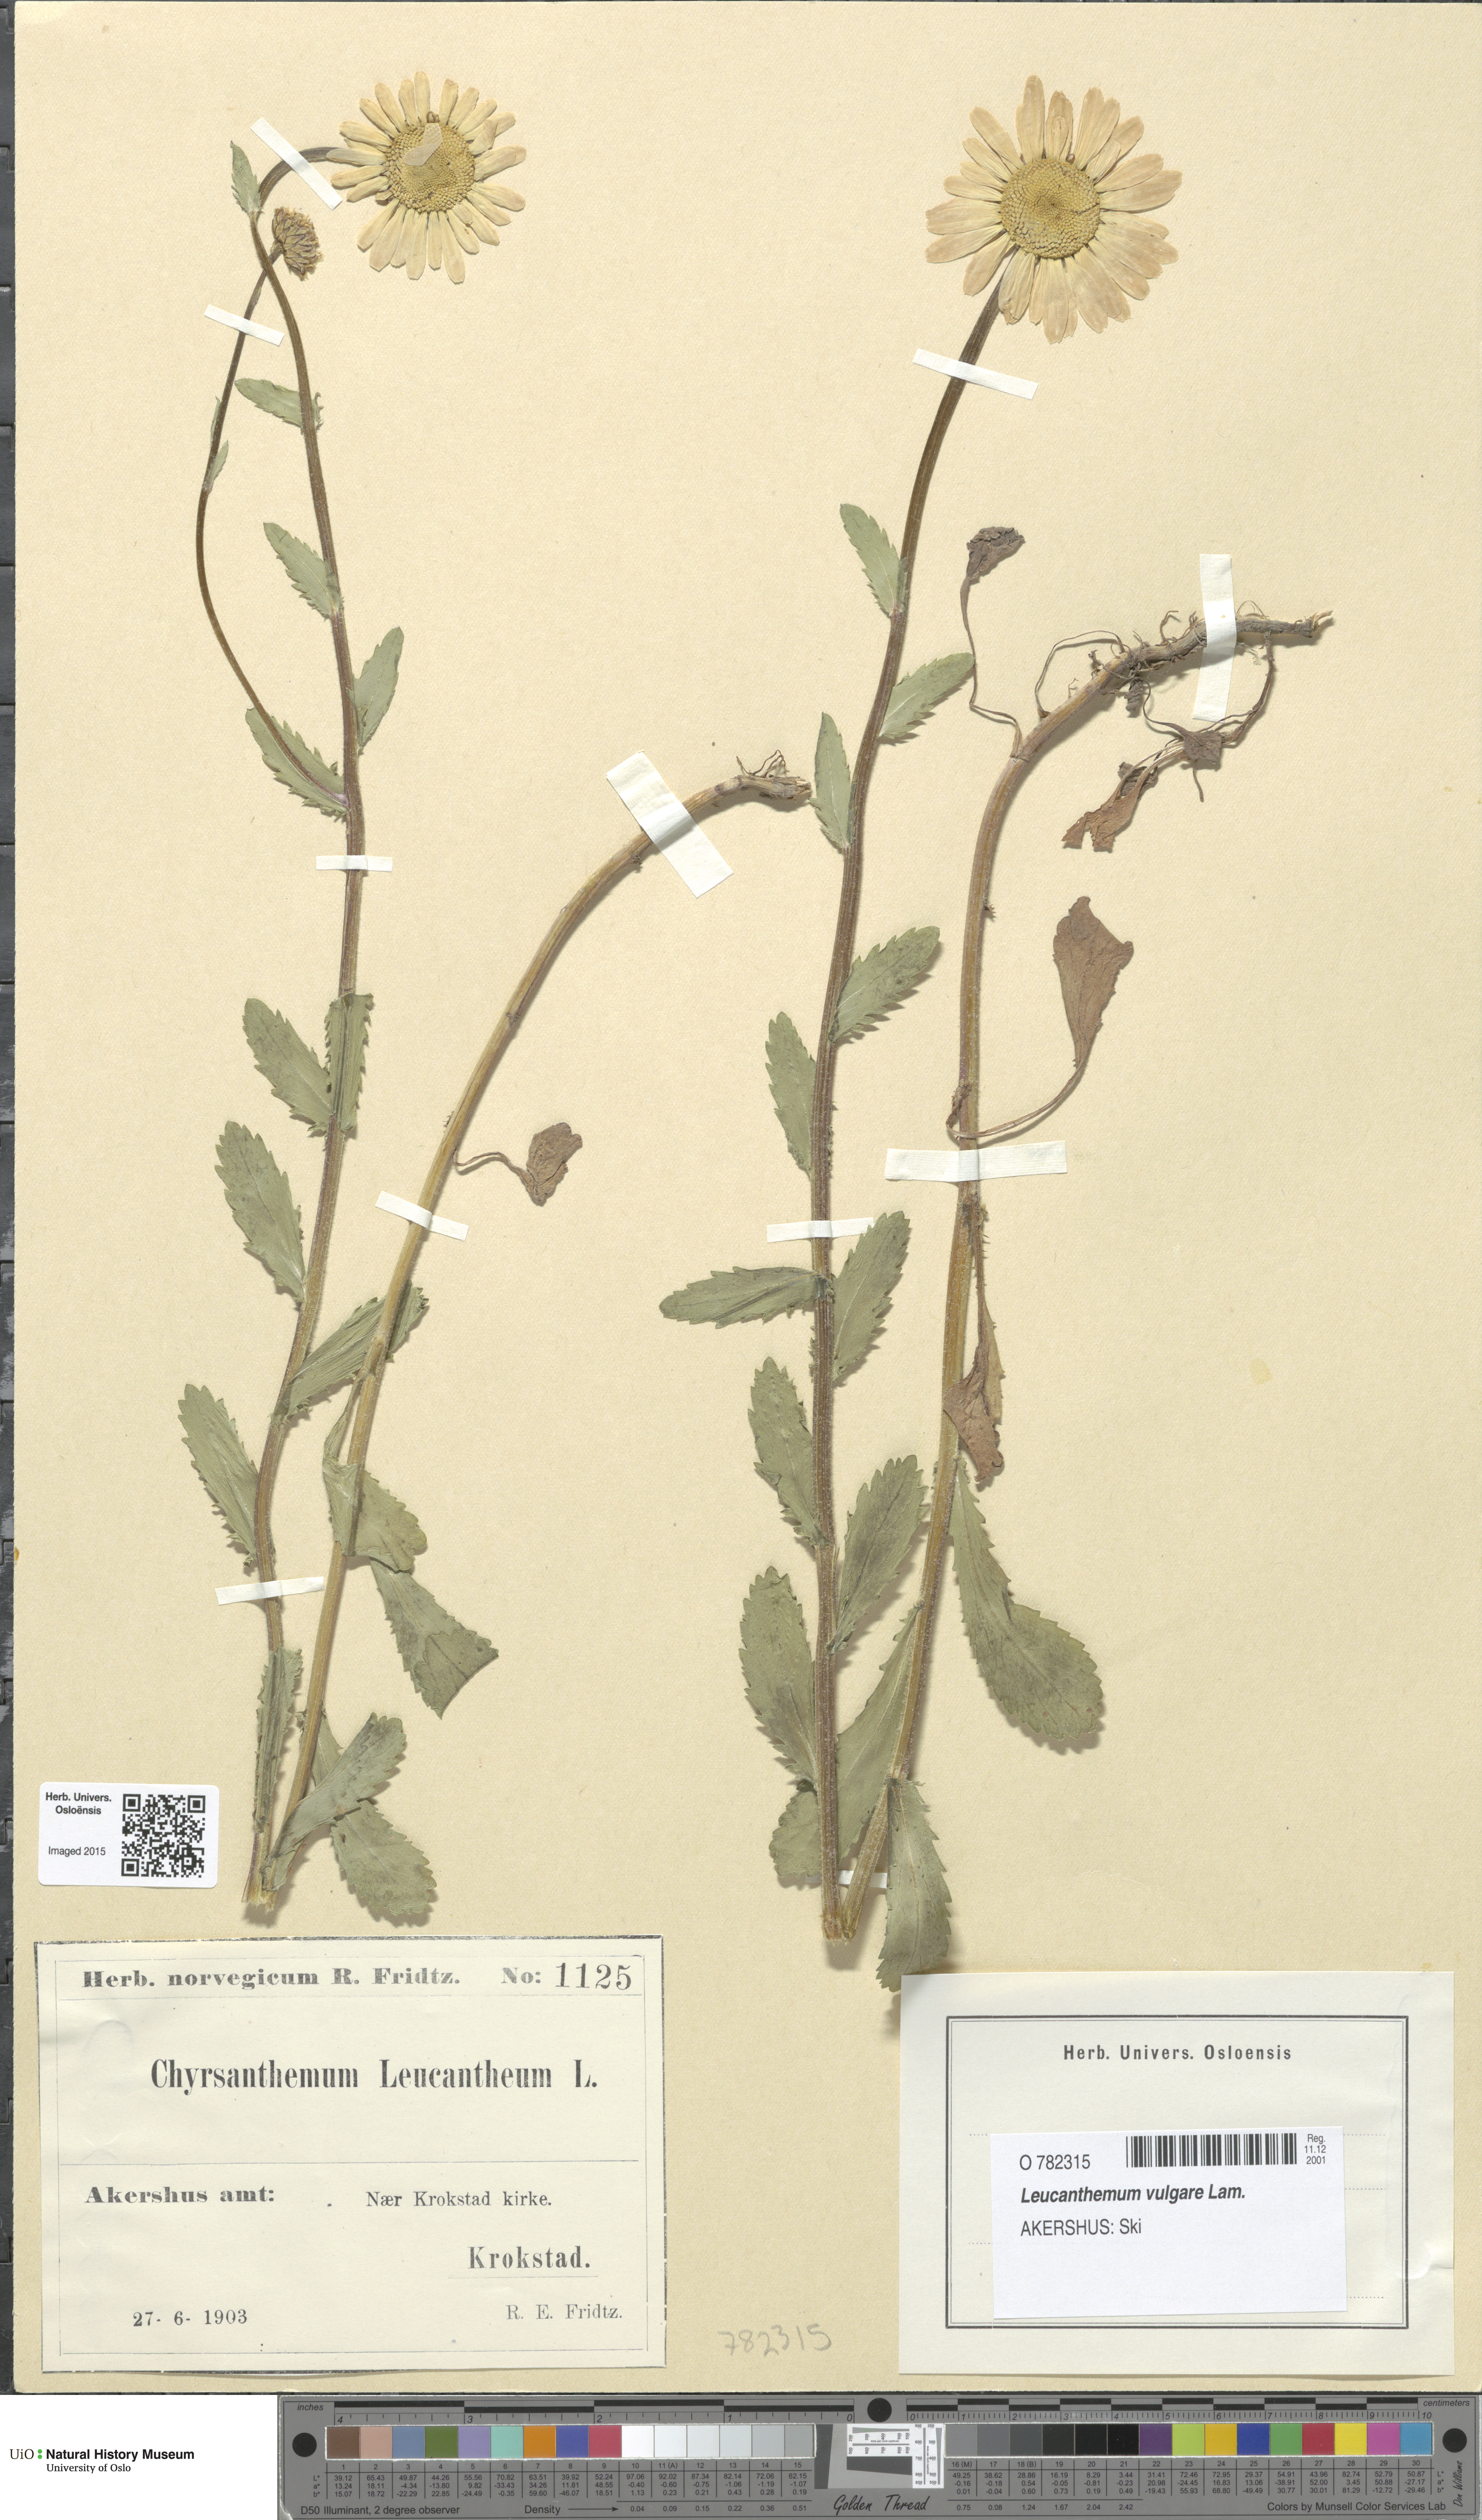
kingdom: Plantae
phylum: Tracheophyta
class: Magnoliopsida
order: Asterales
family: Asteraceae
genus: Leucanthemum
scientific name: Leucanthemum vulgare
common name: Oxeye daisy
